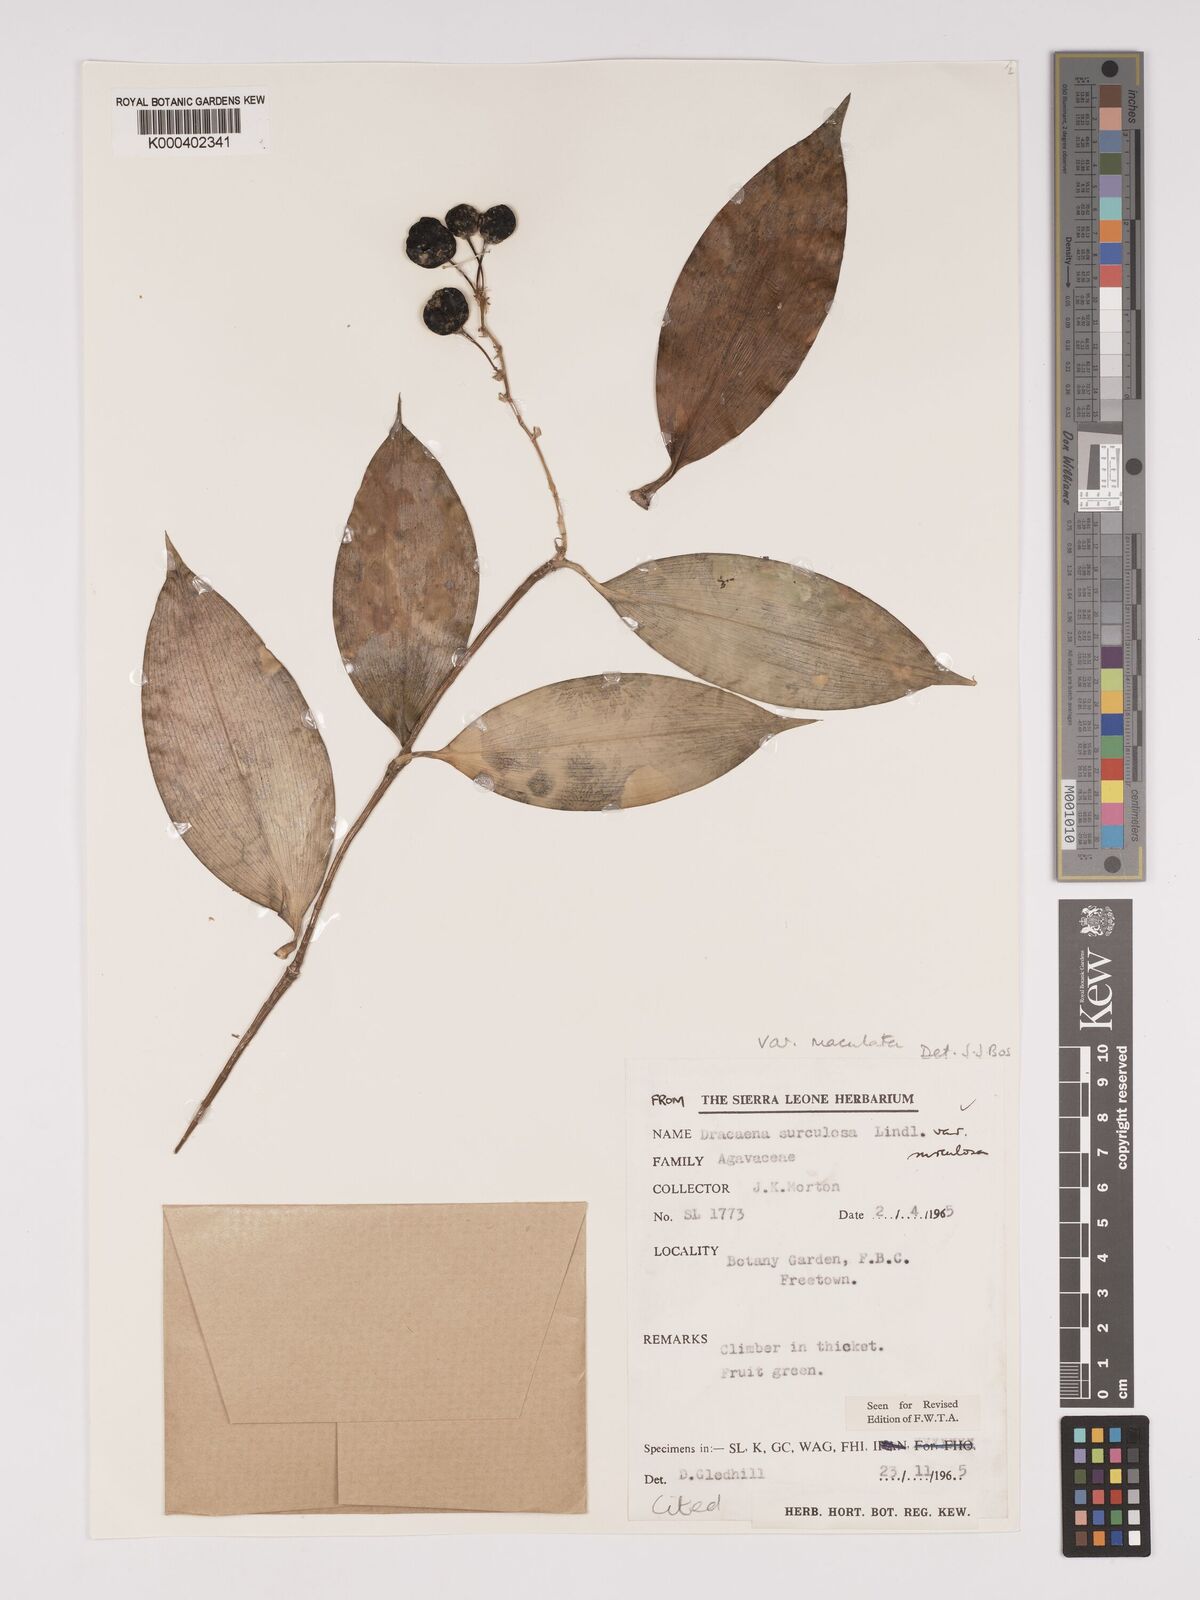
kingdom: Plantae
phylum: Tracheophyta
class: Liliopsida
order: Asparagales
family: Asparagaceae
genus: Dracaena
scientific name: Dracaena surculosa
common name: Spotted dracaena
